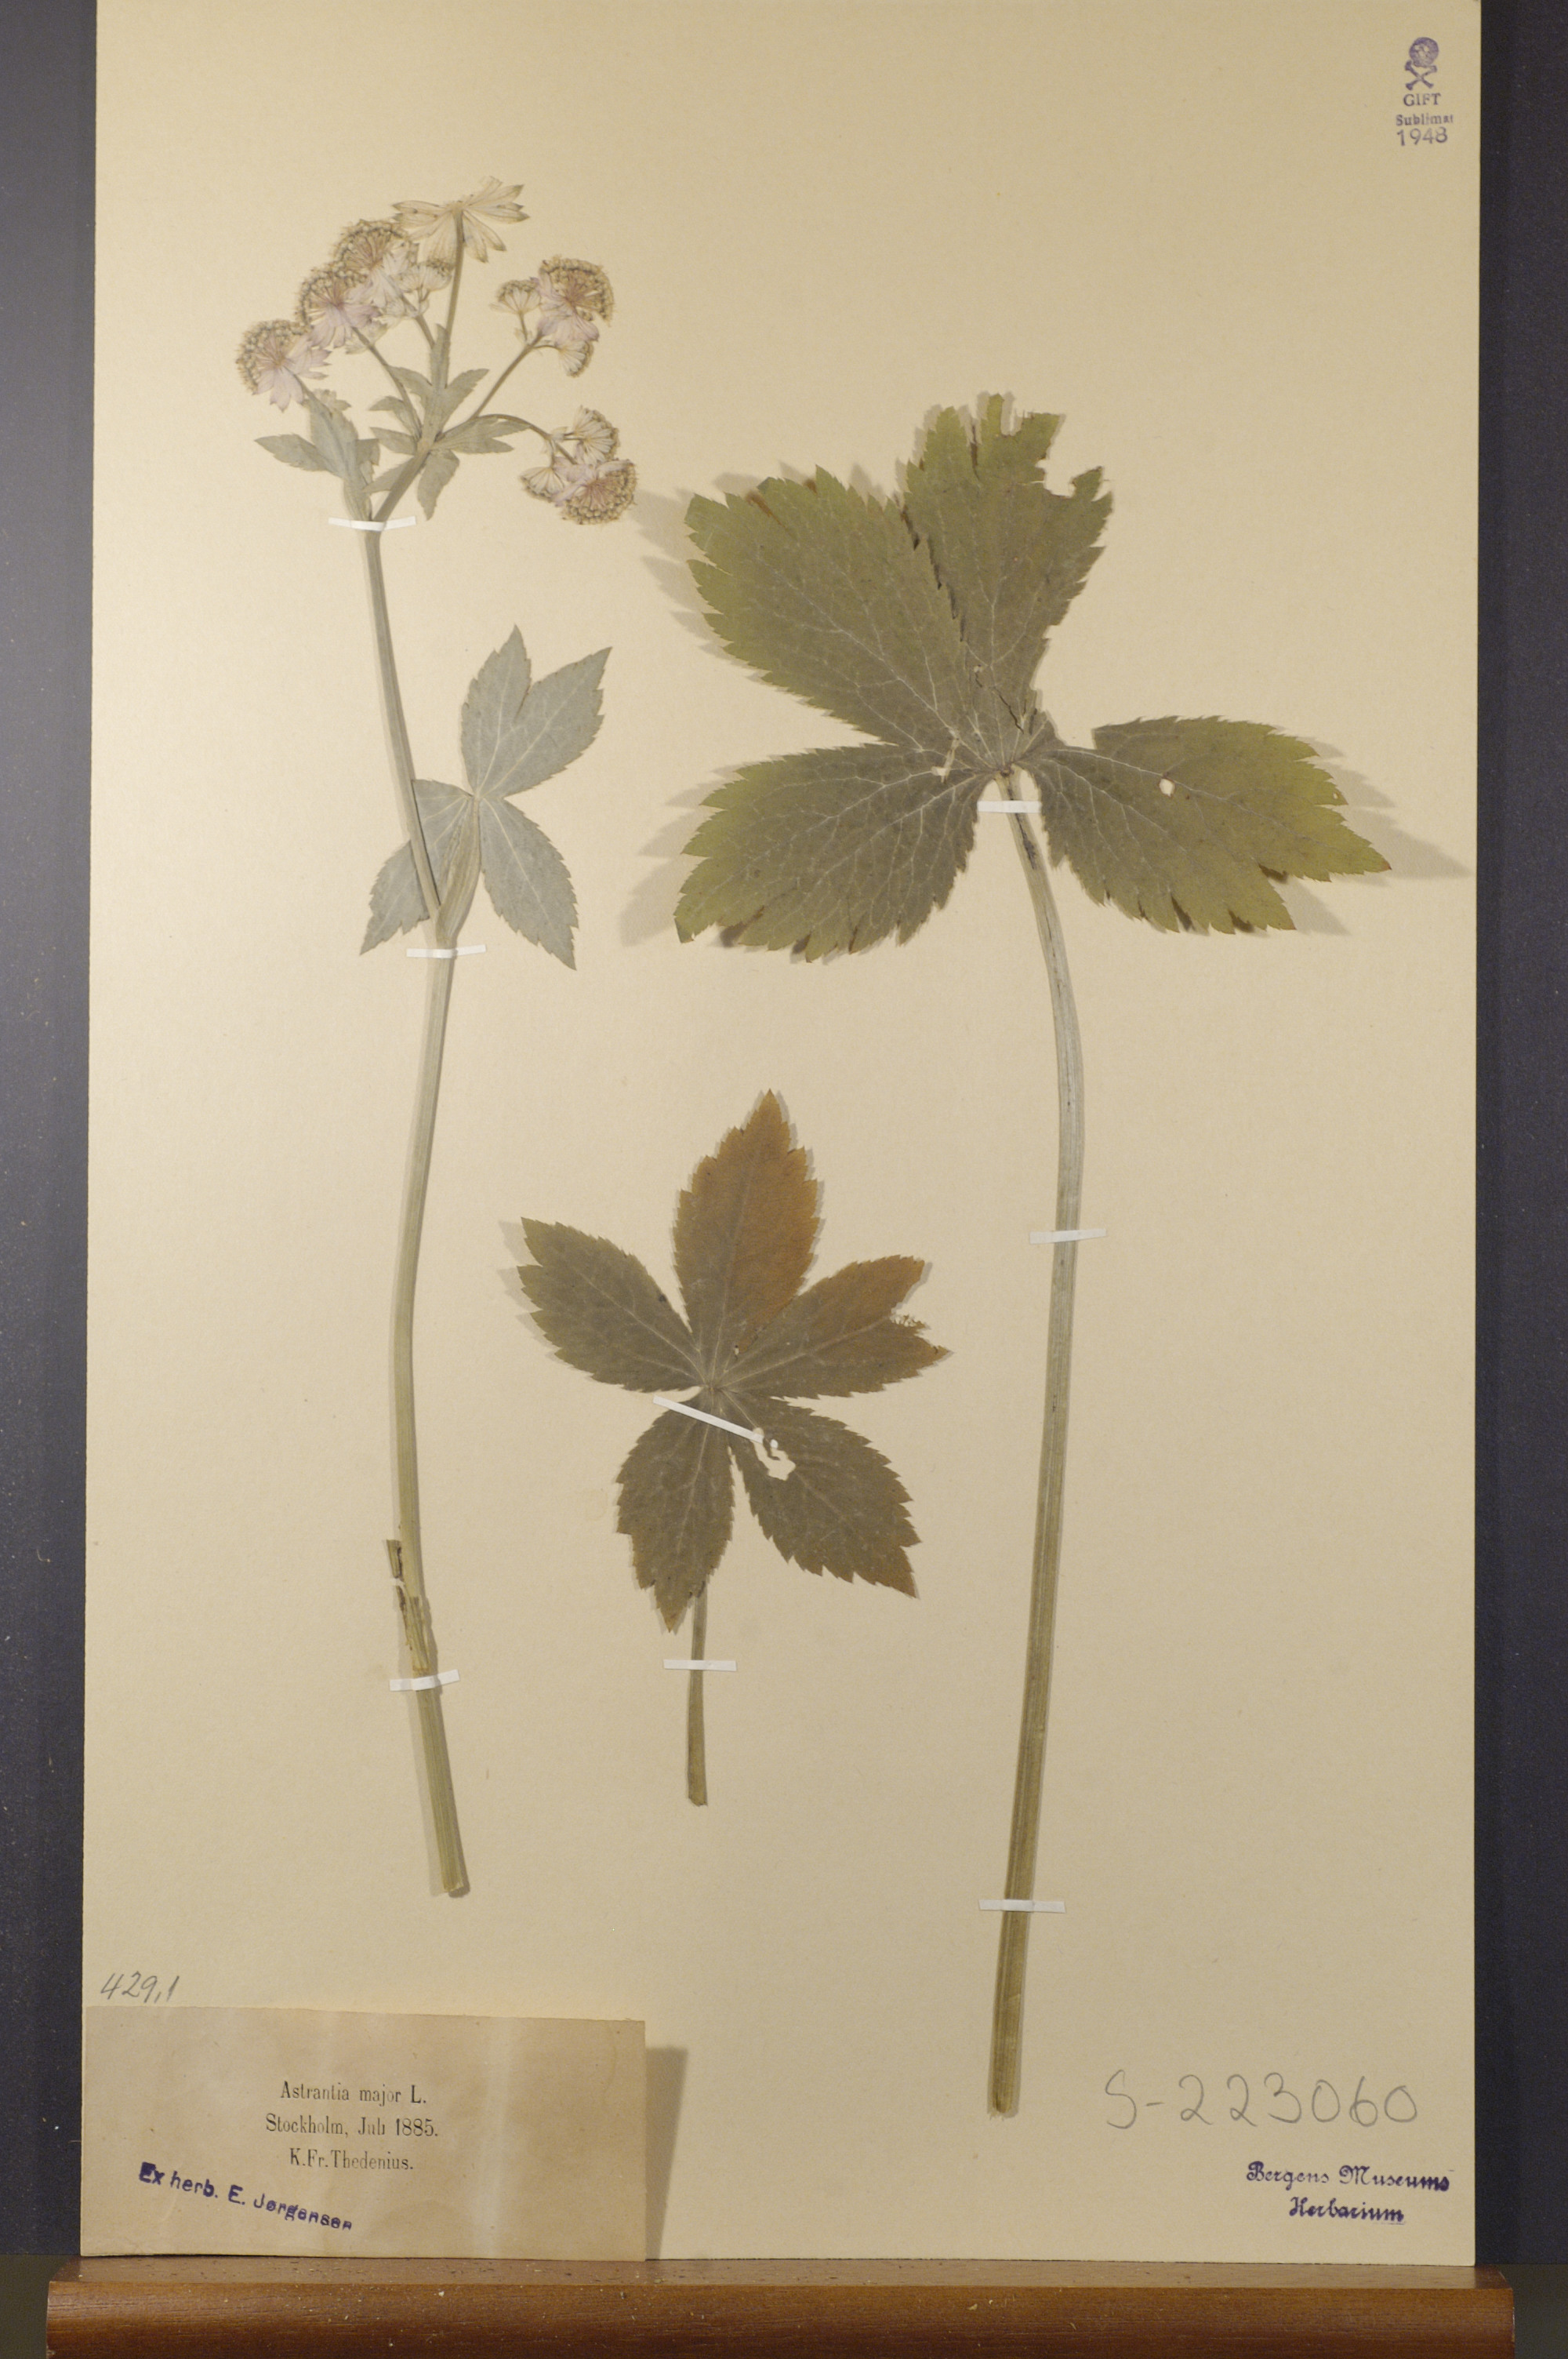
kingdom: Plantae
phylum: Tracheophyta
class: Magnoliopsida
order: Apiales
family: Apiaceae
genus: Astrantia
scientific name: Astrantia major
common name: Greater masterwort
